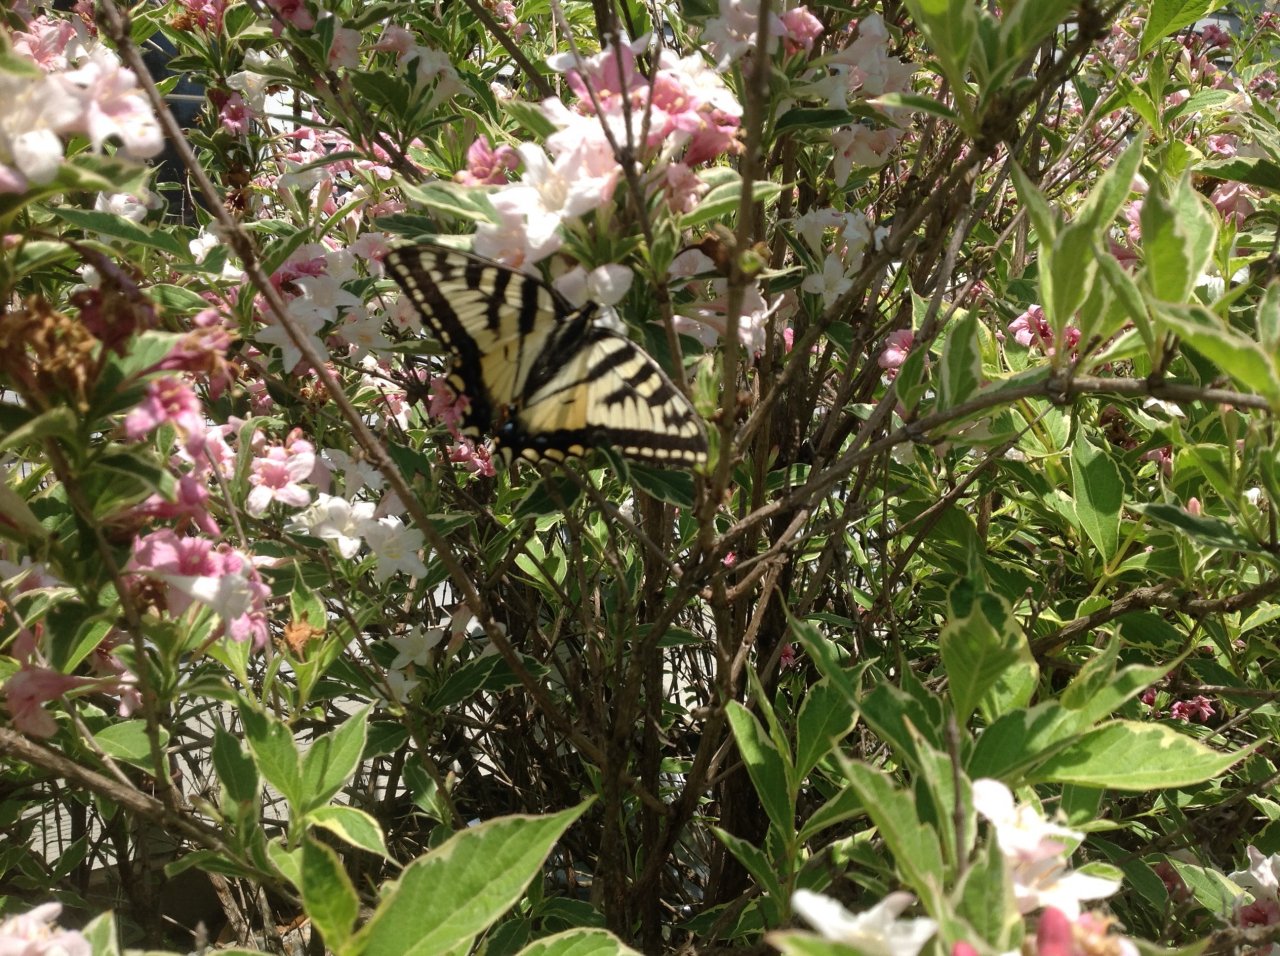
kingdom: Animalia
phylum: Arthropoda
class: Insecta
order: Lepidoptera
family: Papilionidae
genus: Pterourus
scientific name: Pterourus canadensis
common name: Canadian Tiger Swallowtail
